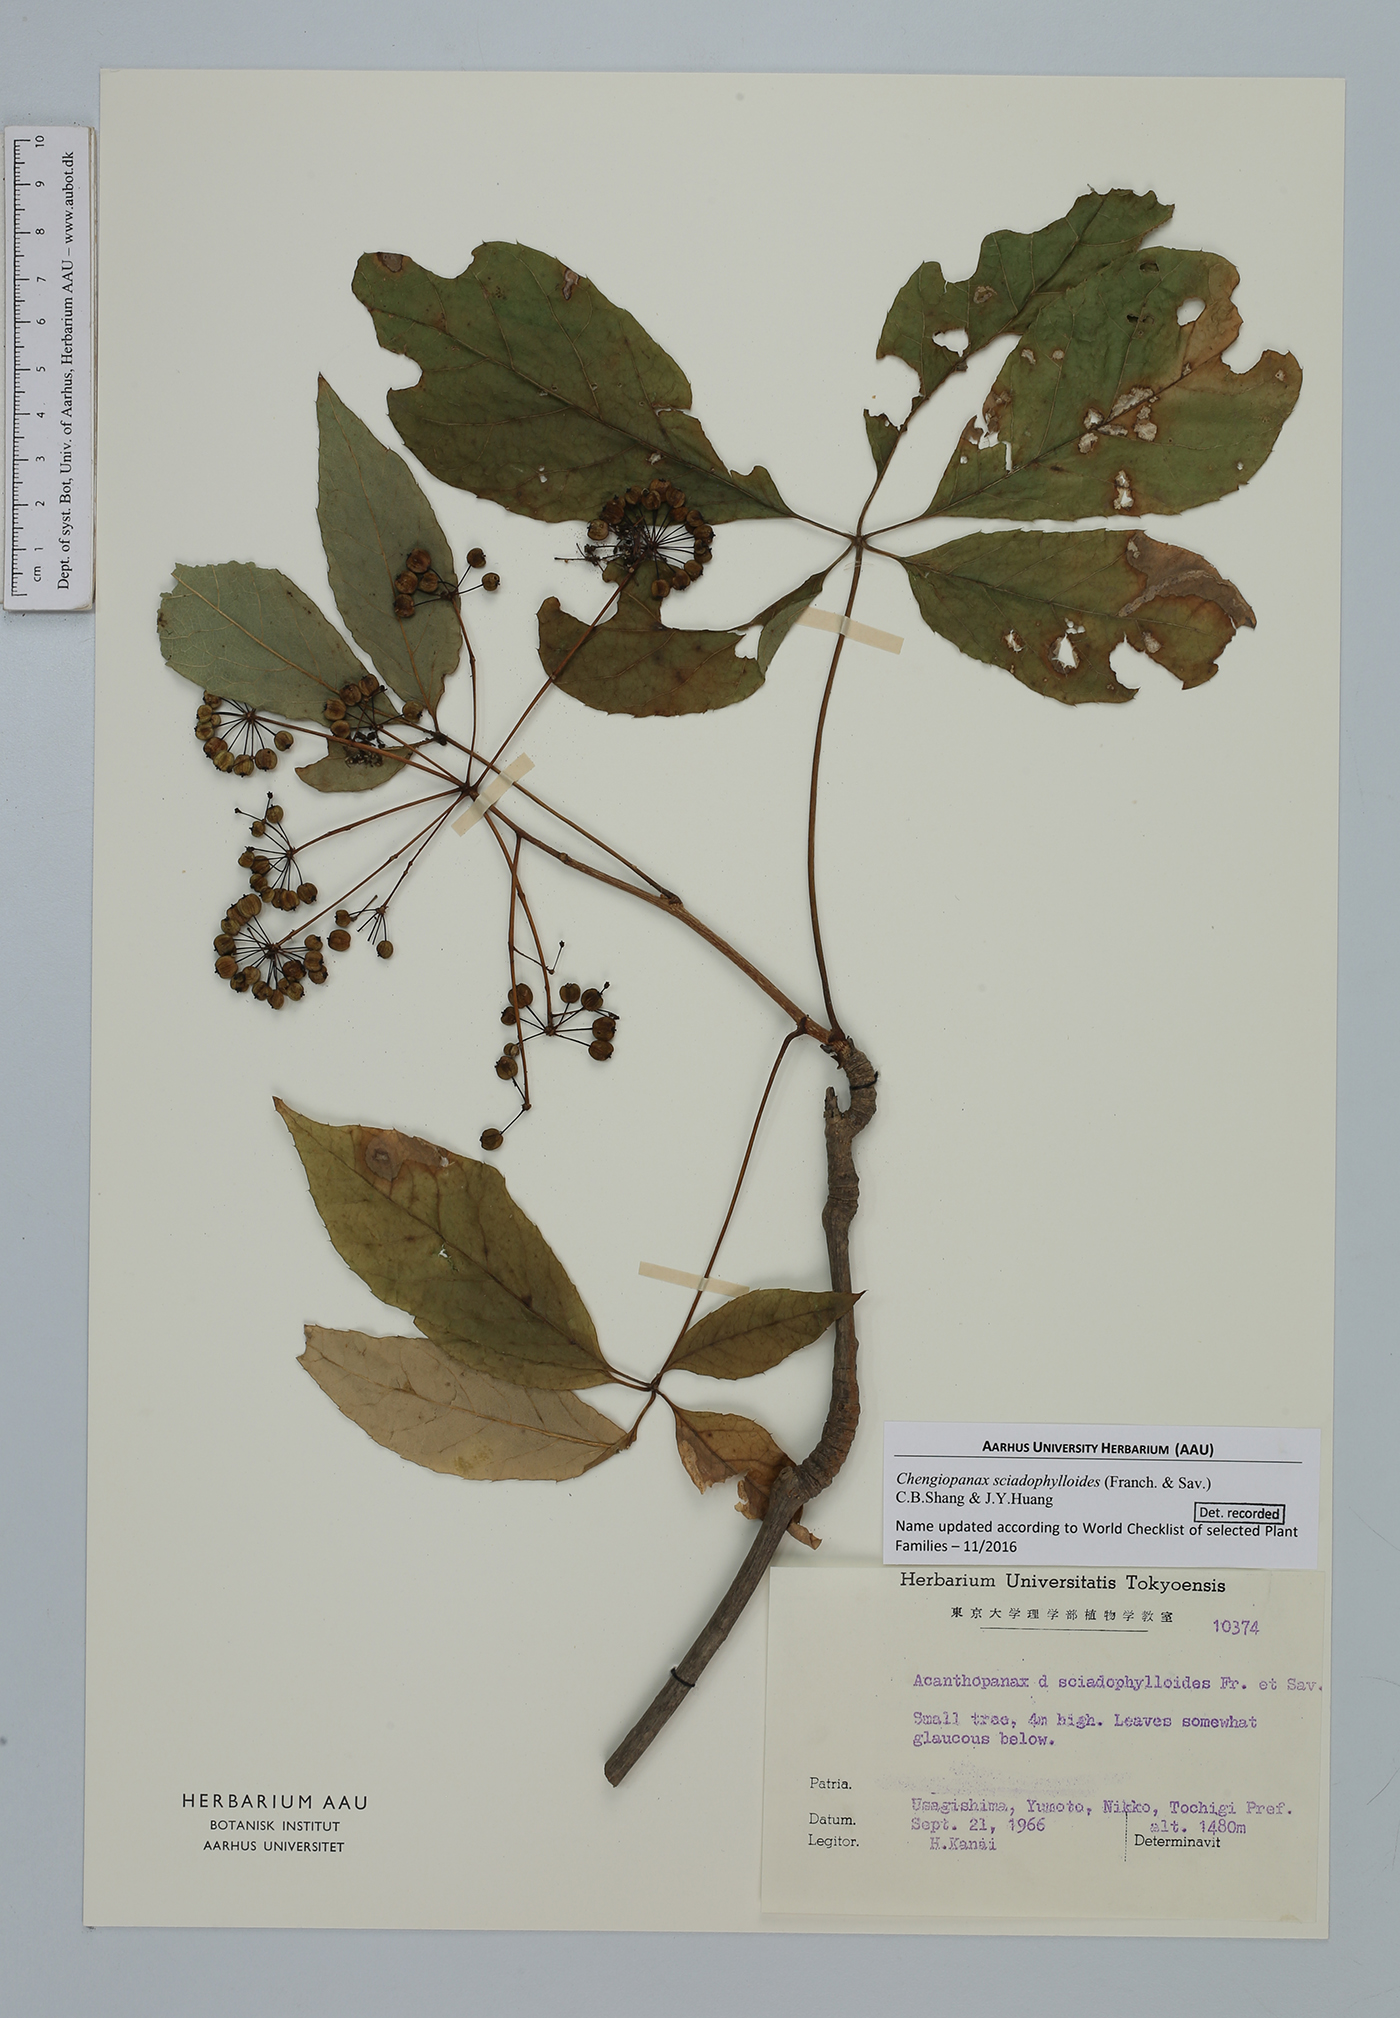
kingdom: Plantae
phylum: Tracheophyta
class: Magnoliopsida
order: Apiales
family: Araliaceae
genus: Chengiopanax
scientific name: Chengiopanax sciadophylloides
